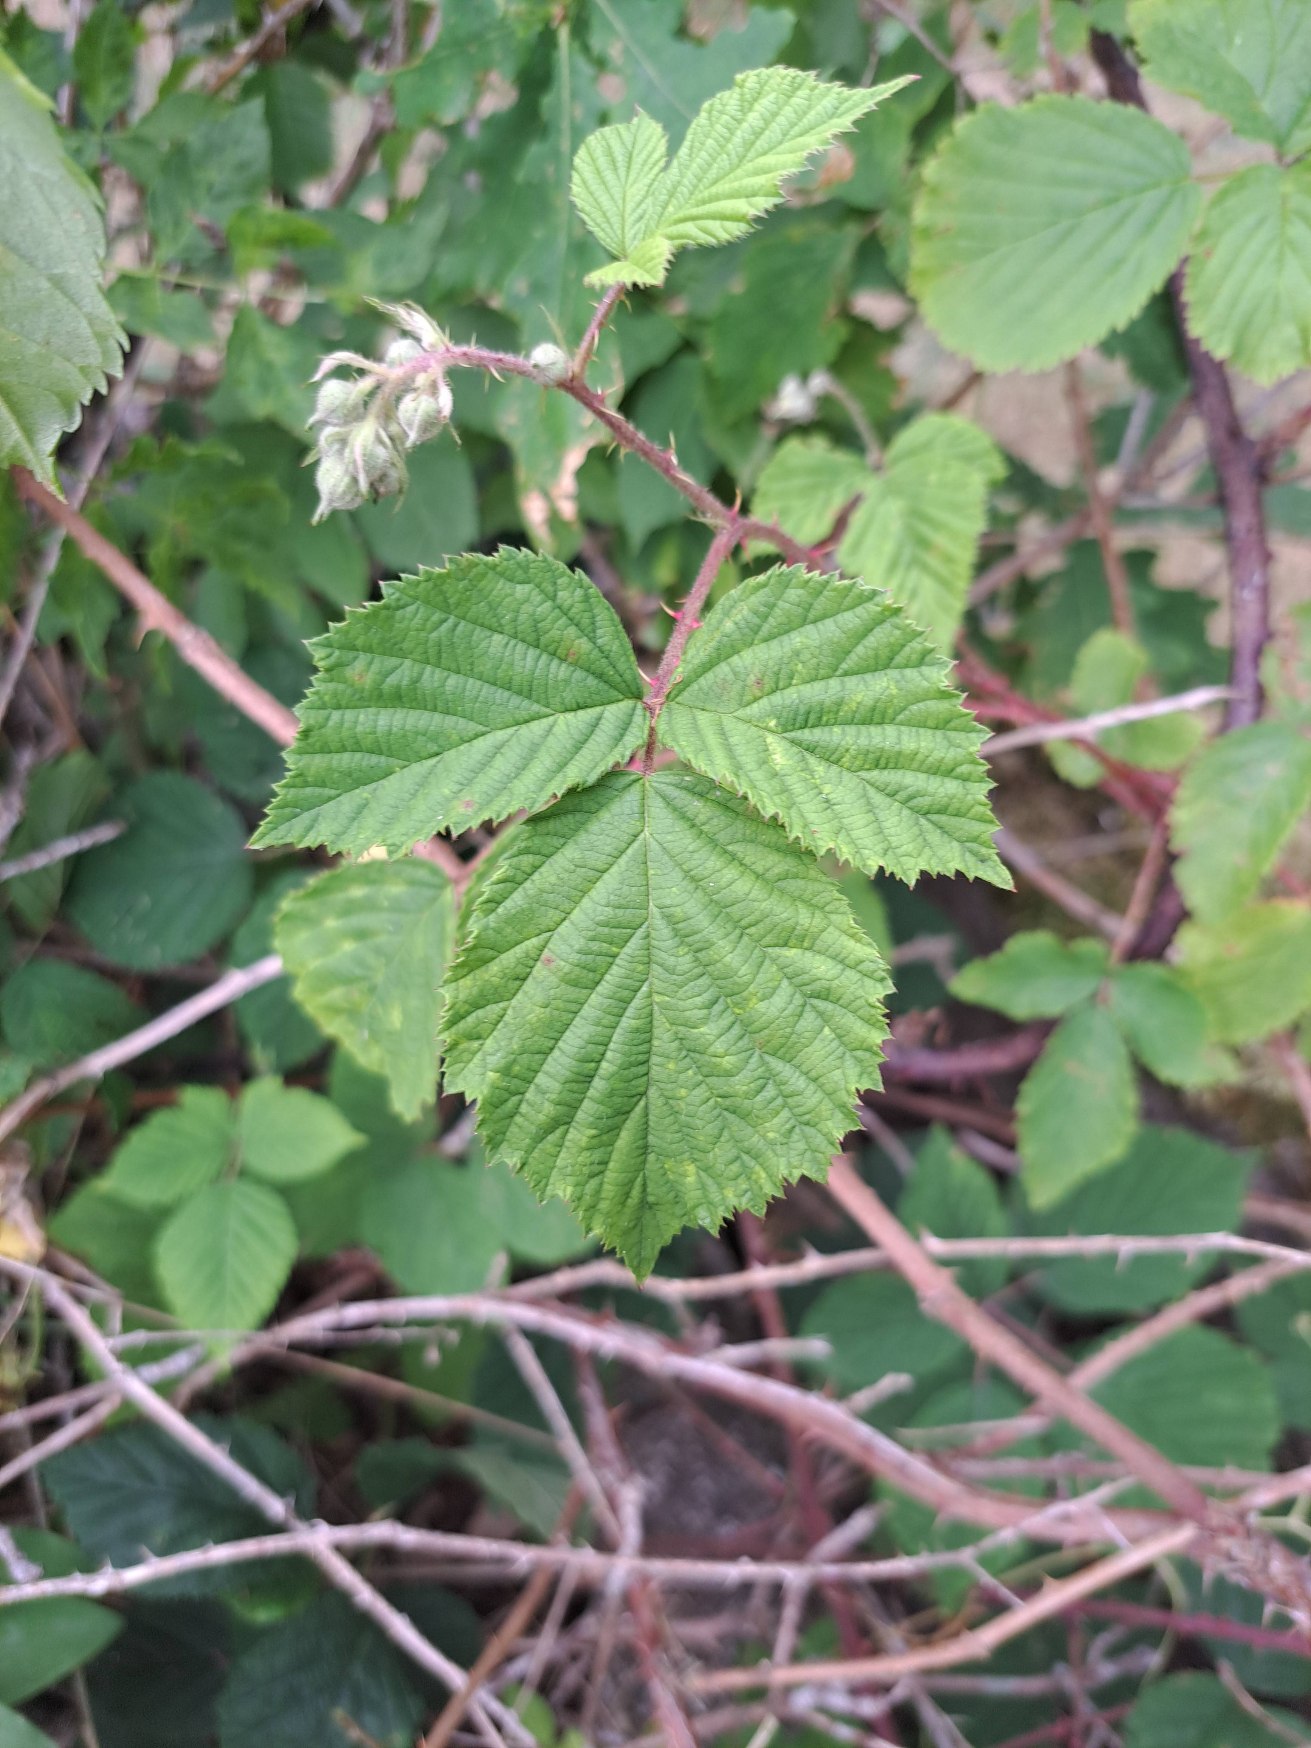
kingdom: Plantae
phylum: Tracheophyta
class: Magnoliopsida
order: Rosales
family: Rosaceae
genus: Rubus
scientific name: Rubus
